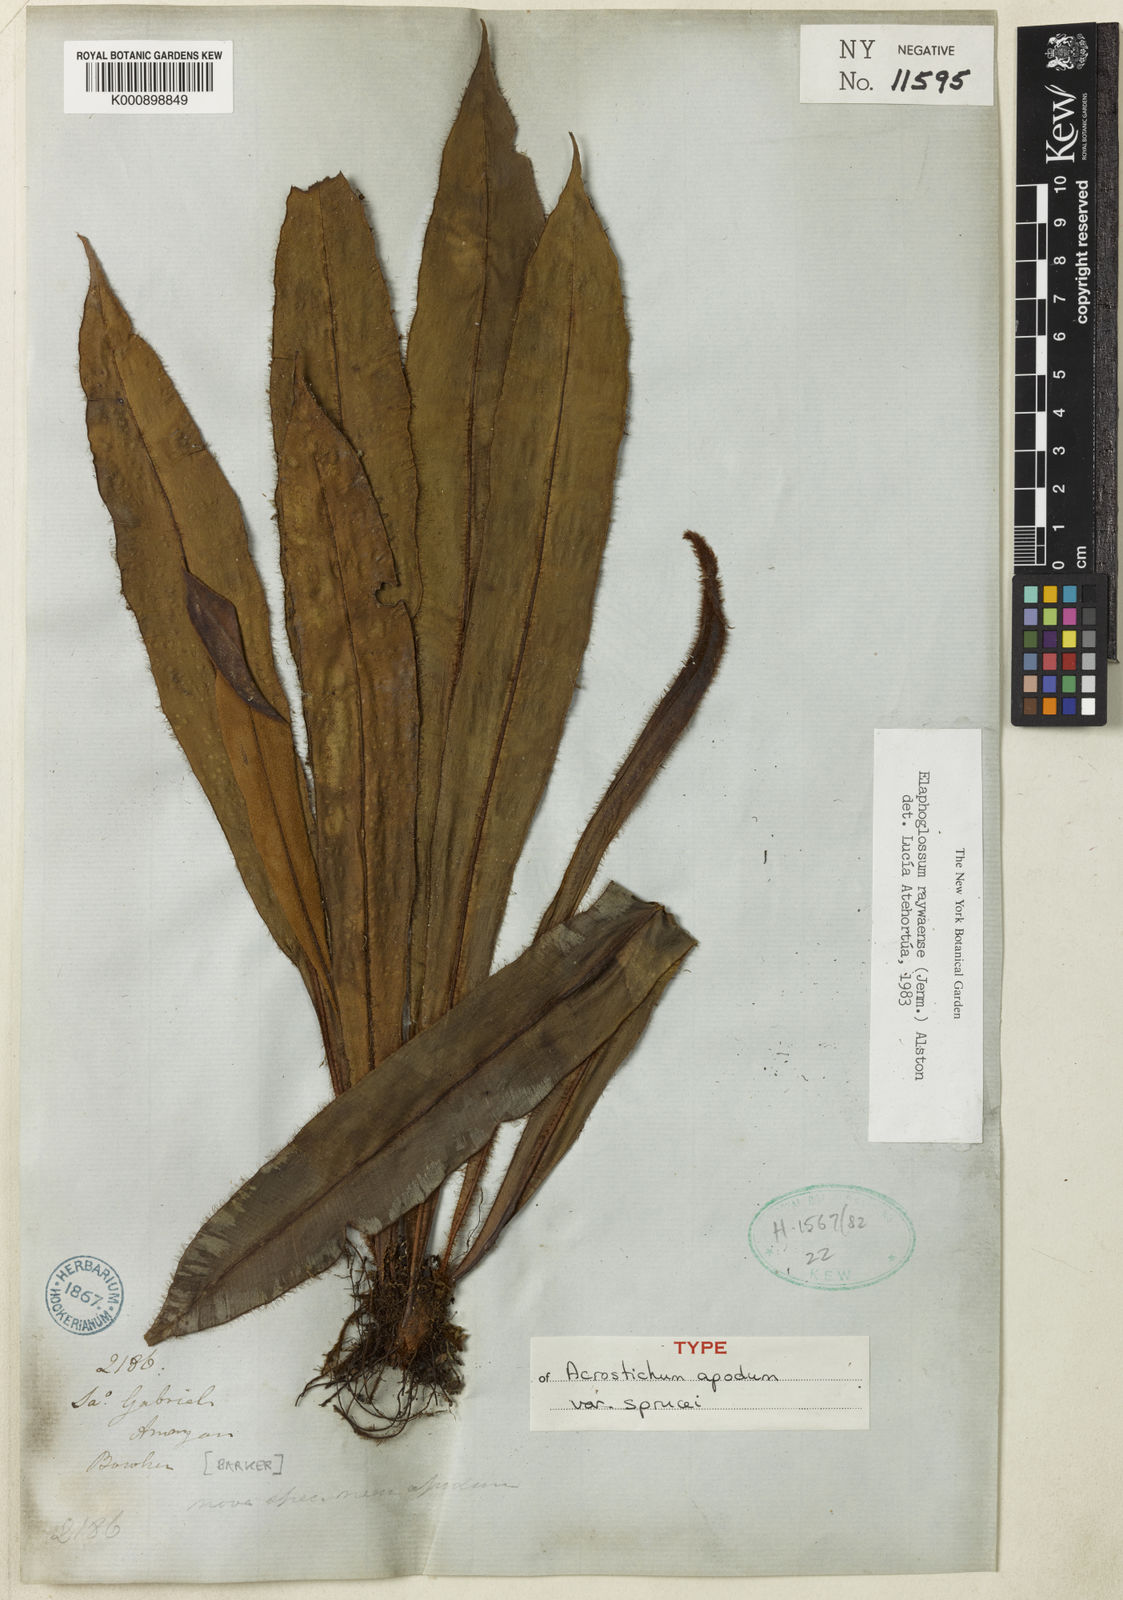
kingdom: Plantae
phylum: Tracheophyta
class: Polypodiopsida
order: Polypodiales
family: Dryopteridaceae
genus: Elaphoglossum
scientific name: Elaphoglossum raywaense
